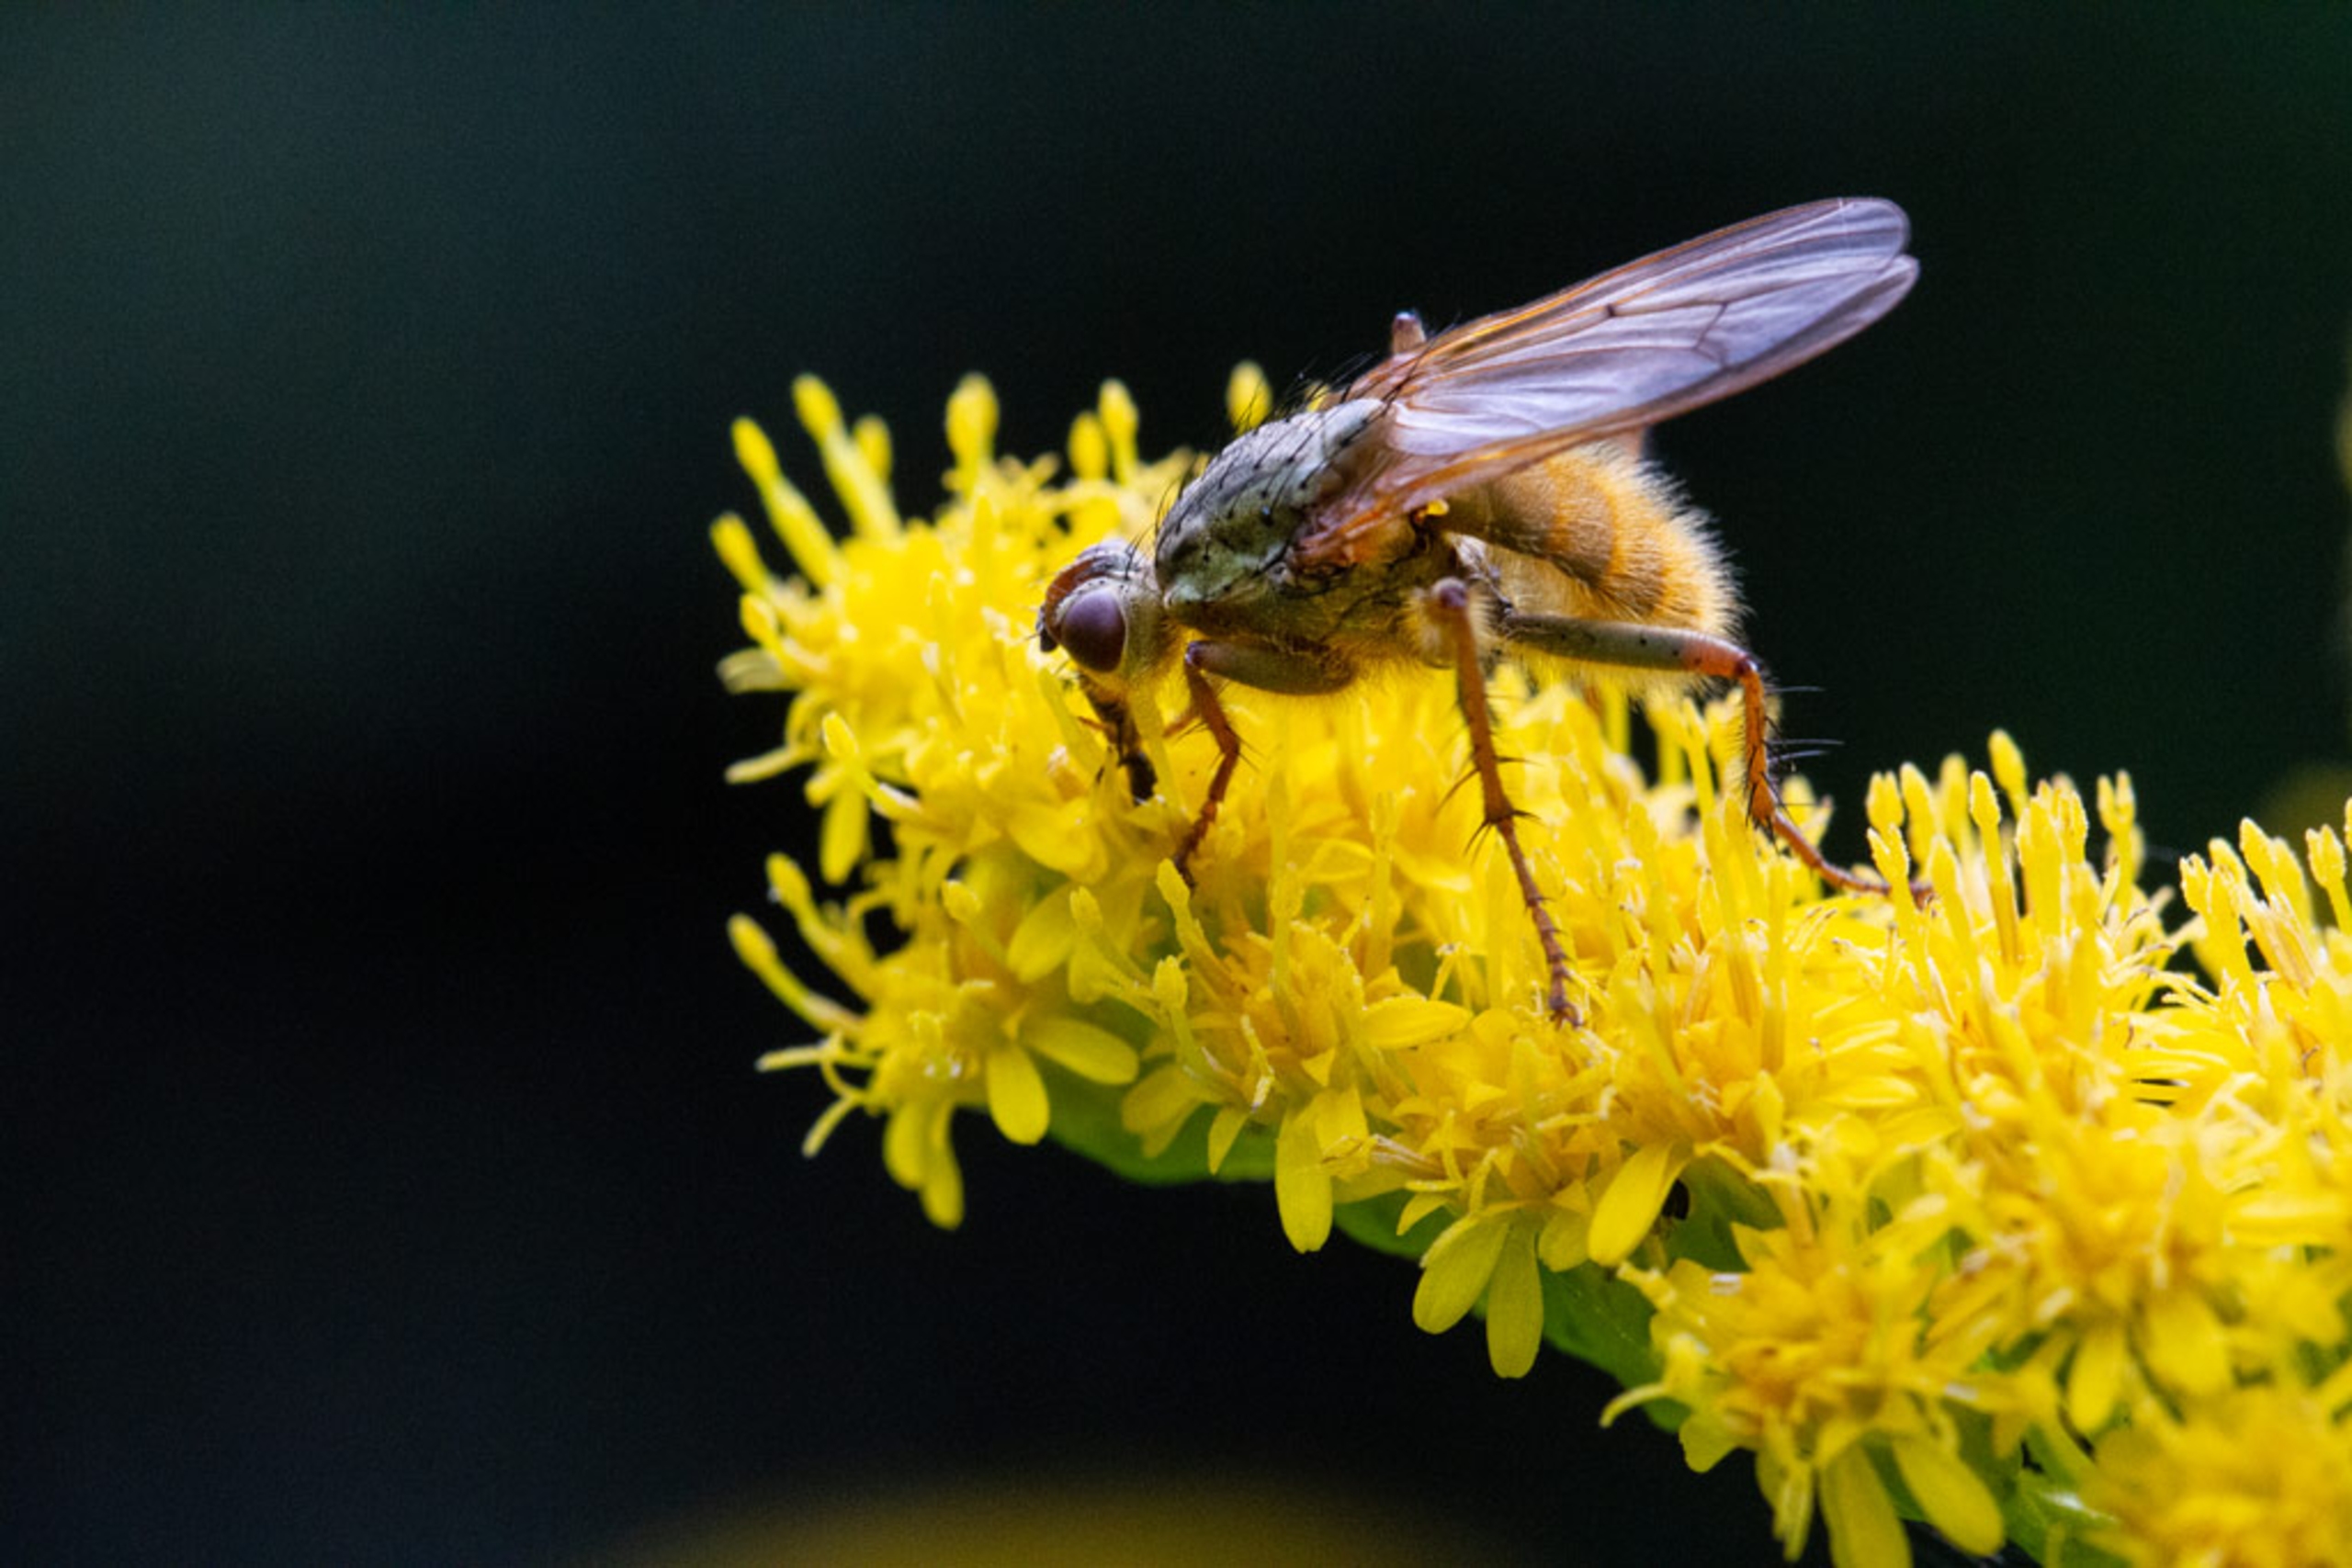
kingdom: Animalia
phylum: Arthropoda
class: Insecta
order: Diptera
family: Scathophagidae
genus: Scathophaga
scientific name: Scathophaga stercoraria
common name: Almindelig gødningsflue
